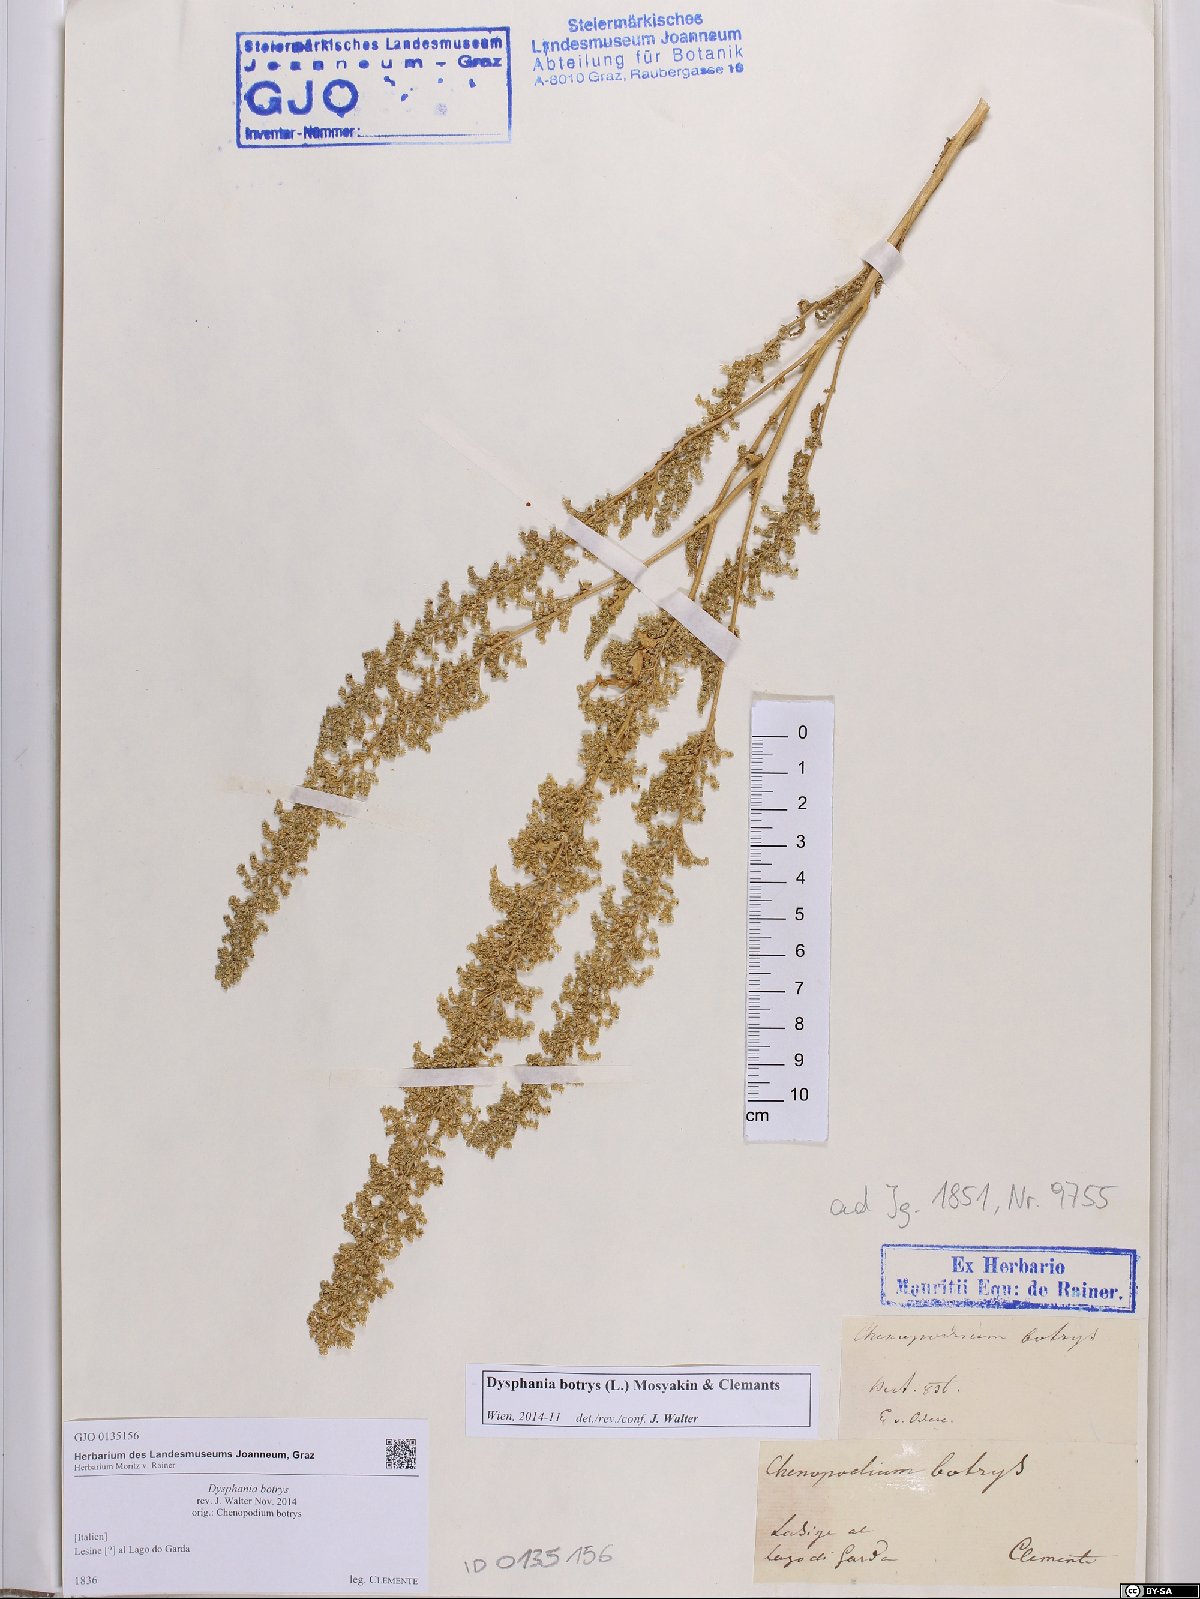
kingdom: Plantae
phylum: Tracheophyta
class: Magnoliopsida
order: Caryophyllales
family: Amaranthaceae
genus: Dysphania
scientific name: Dysphania botrys
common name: Feather-geranium
